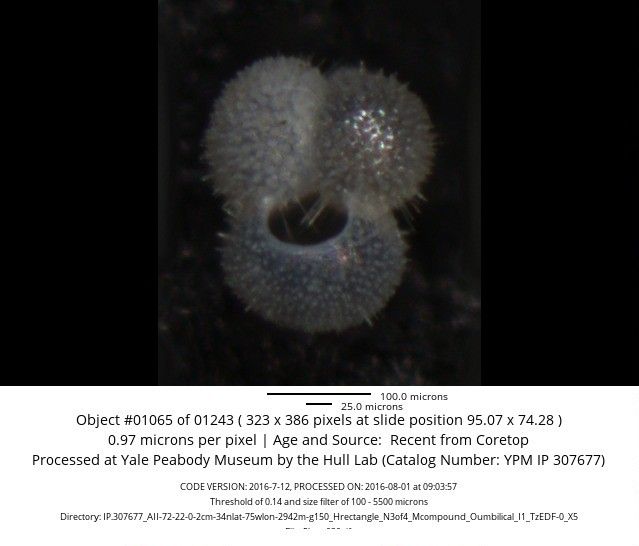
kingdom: Chromista
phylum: Foraminifera
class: Globothalamea
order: Rotaliida
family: Globigerinidae
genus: Globigerinoides
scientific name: Globigerinoides ruber
